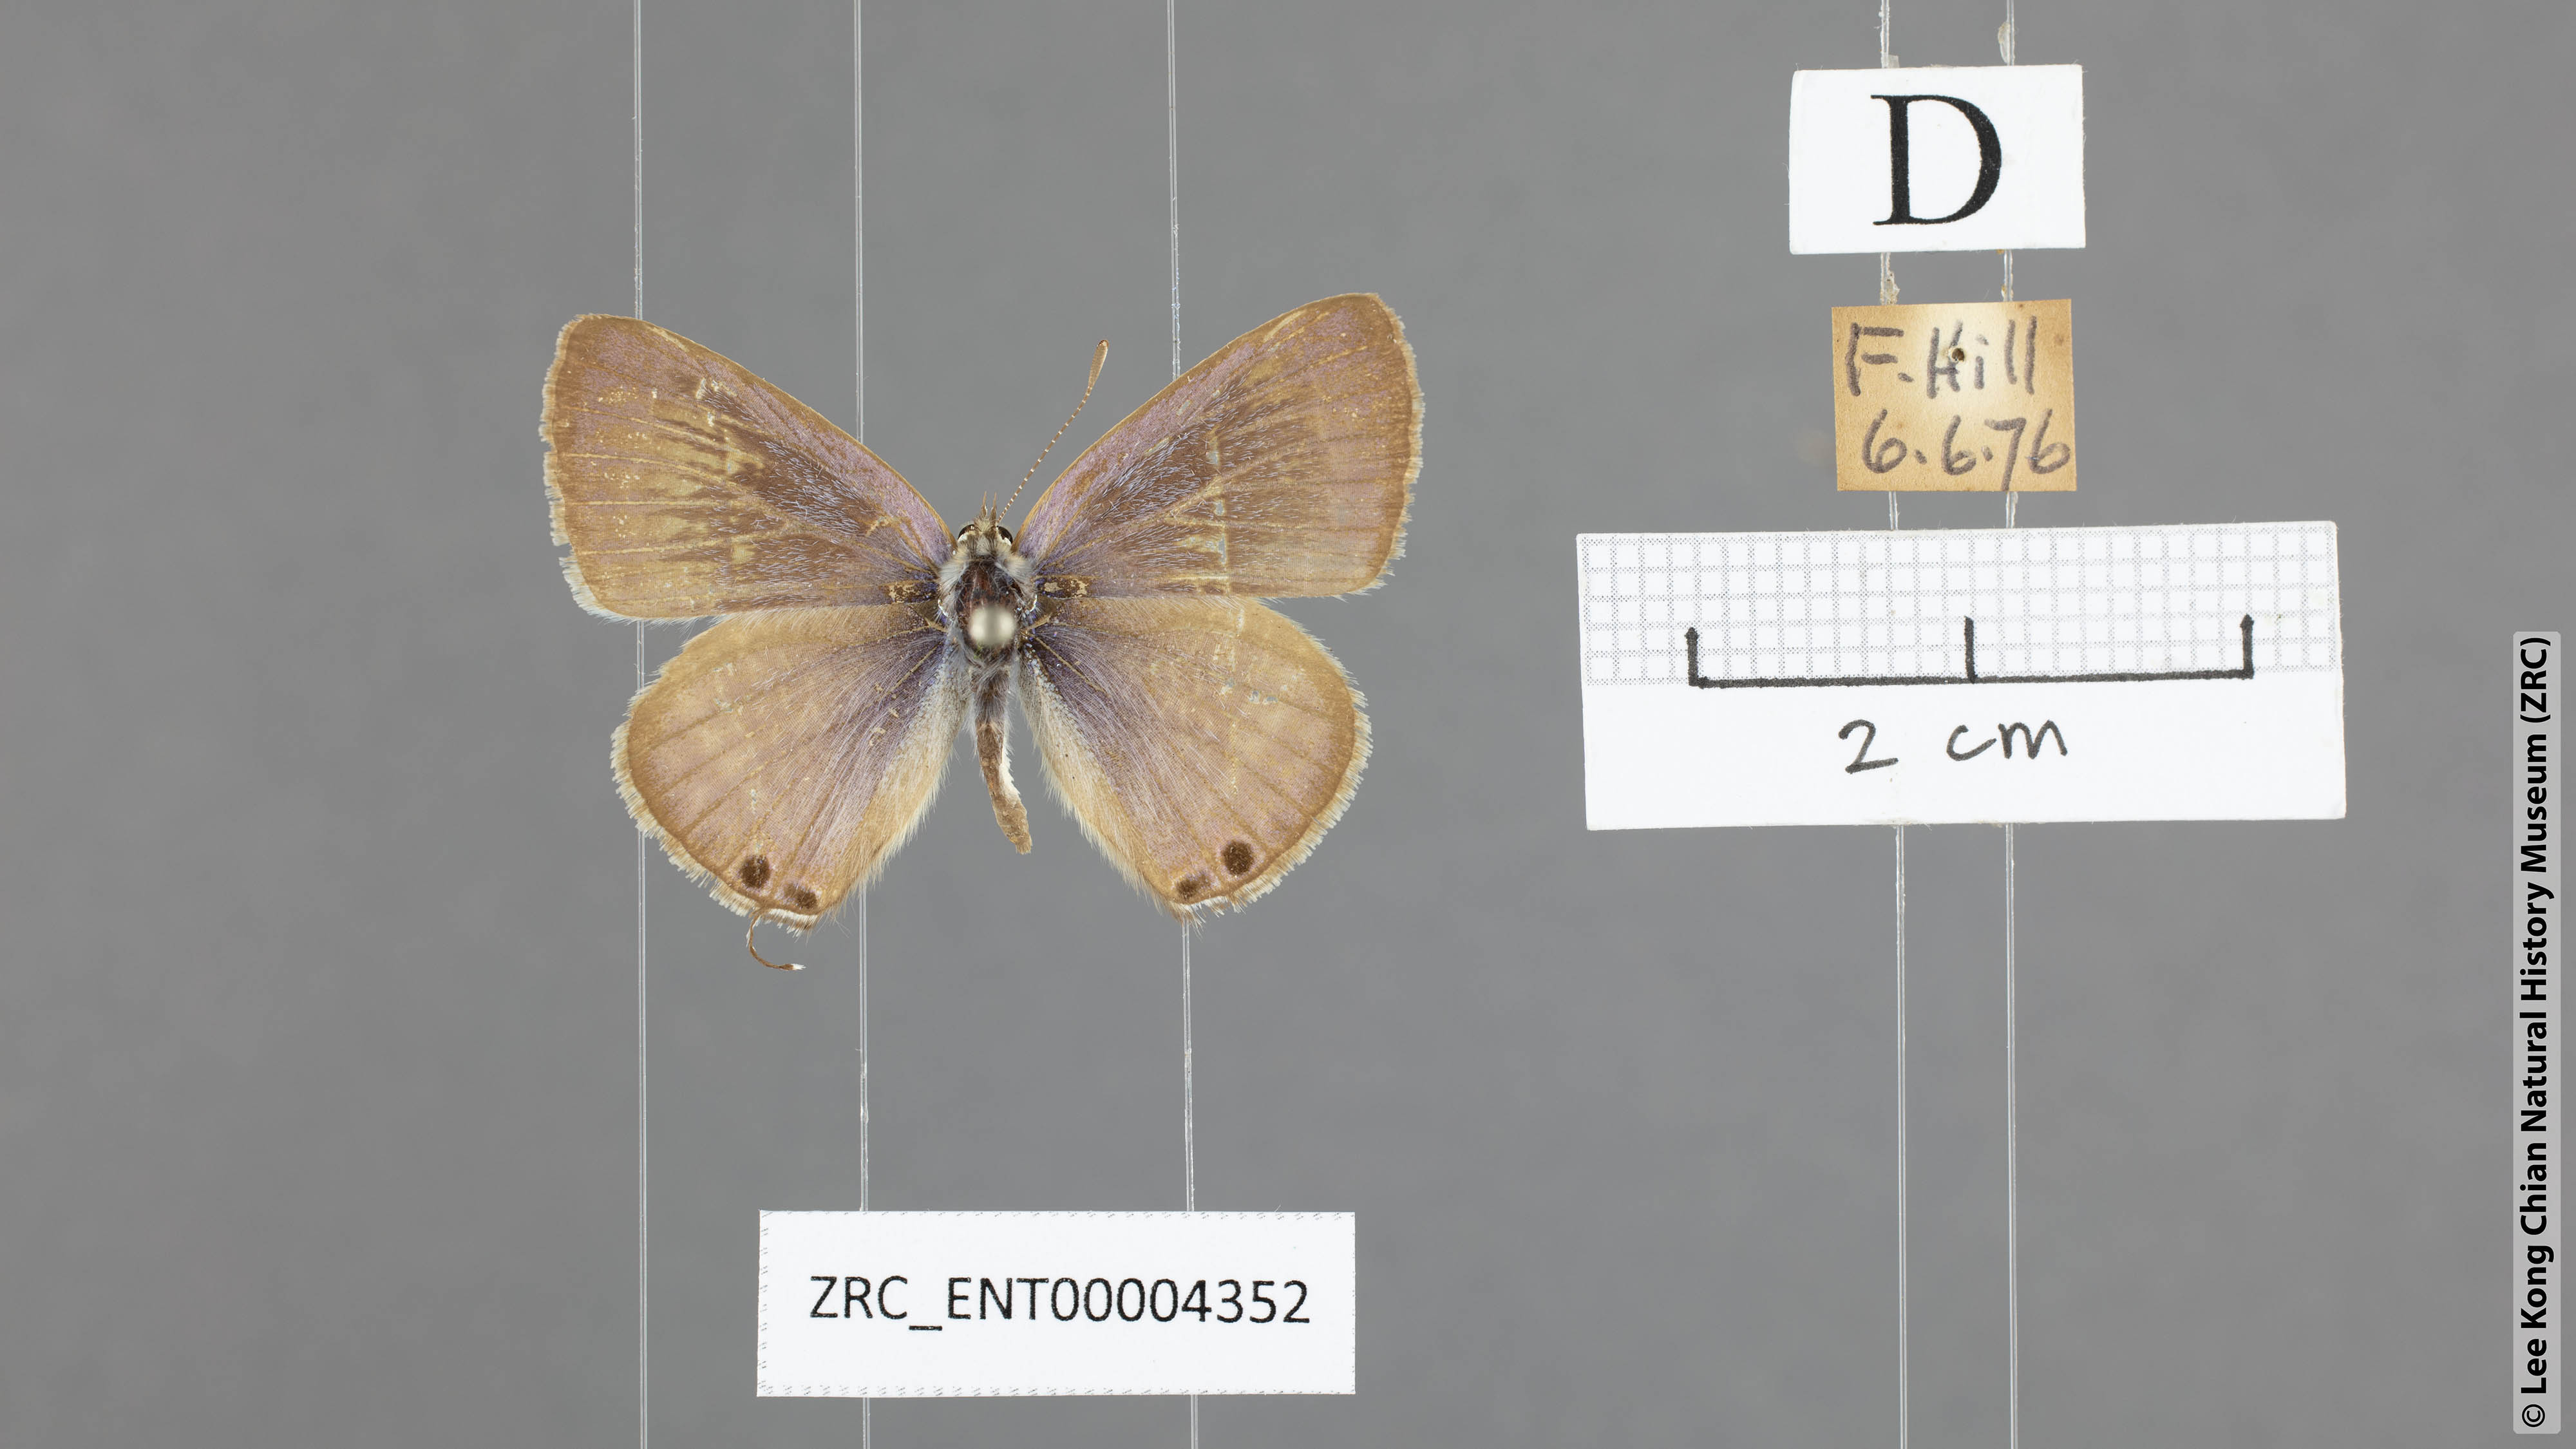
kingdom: Animalia
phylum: Arthropoda
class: Insecta
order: Lepidoptera
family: Lycaenidae
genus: Lampides
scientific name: Lampides boeticus
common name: Long-tailed blue
